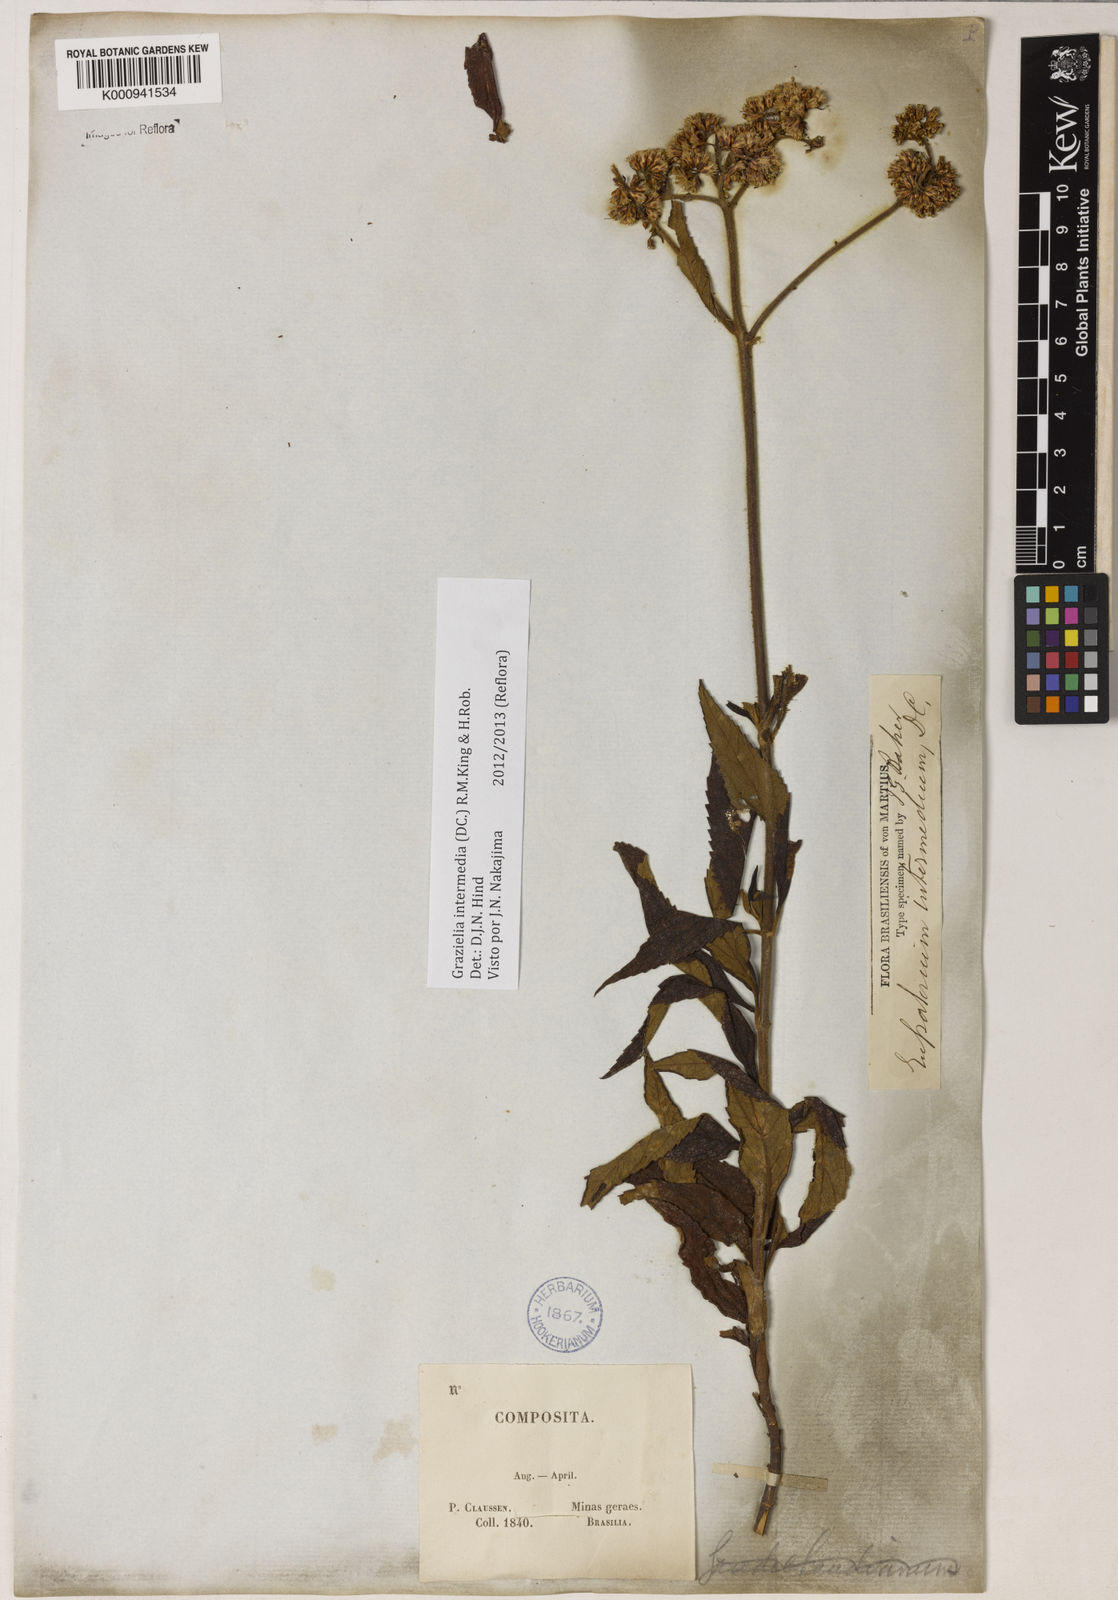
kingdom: Plantae
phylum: Tracheophyta
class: Magnoliopsida
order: Asterales
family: Asteraceae
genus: Grazielia
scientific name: Grazielia intermedia
